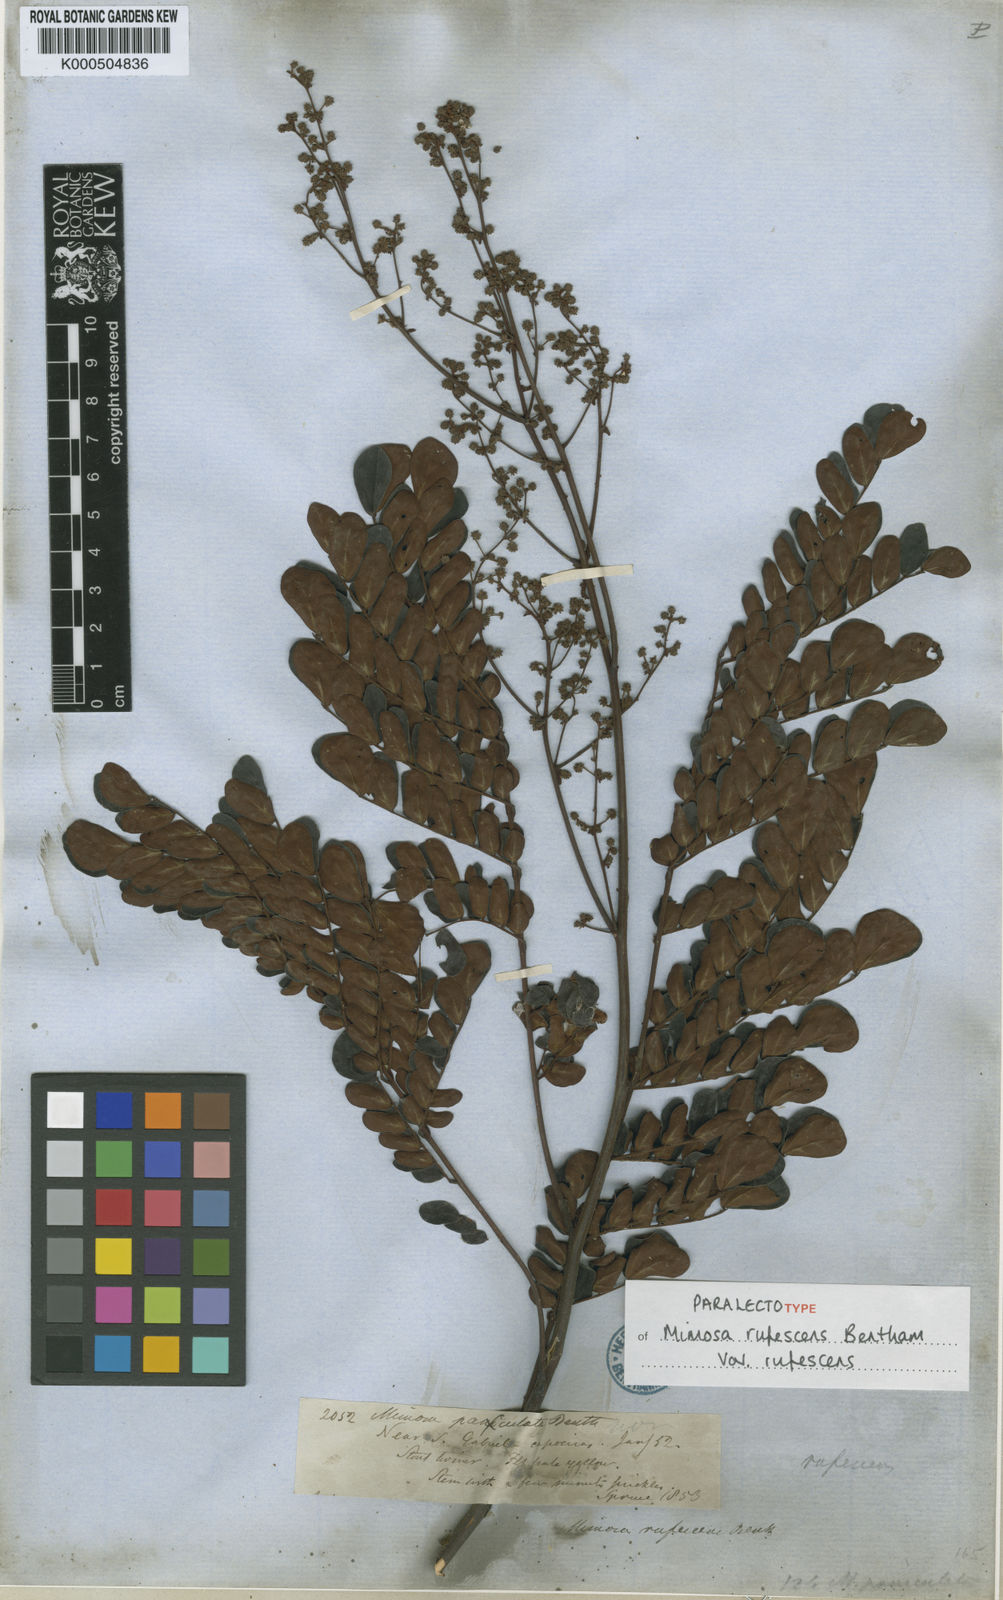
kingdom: Plantae
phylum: Tracheophyta
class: Magnoliopsida
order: Fabales
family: Fabaceae
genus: Mimosa
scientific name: Mimosa rufescens
